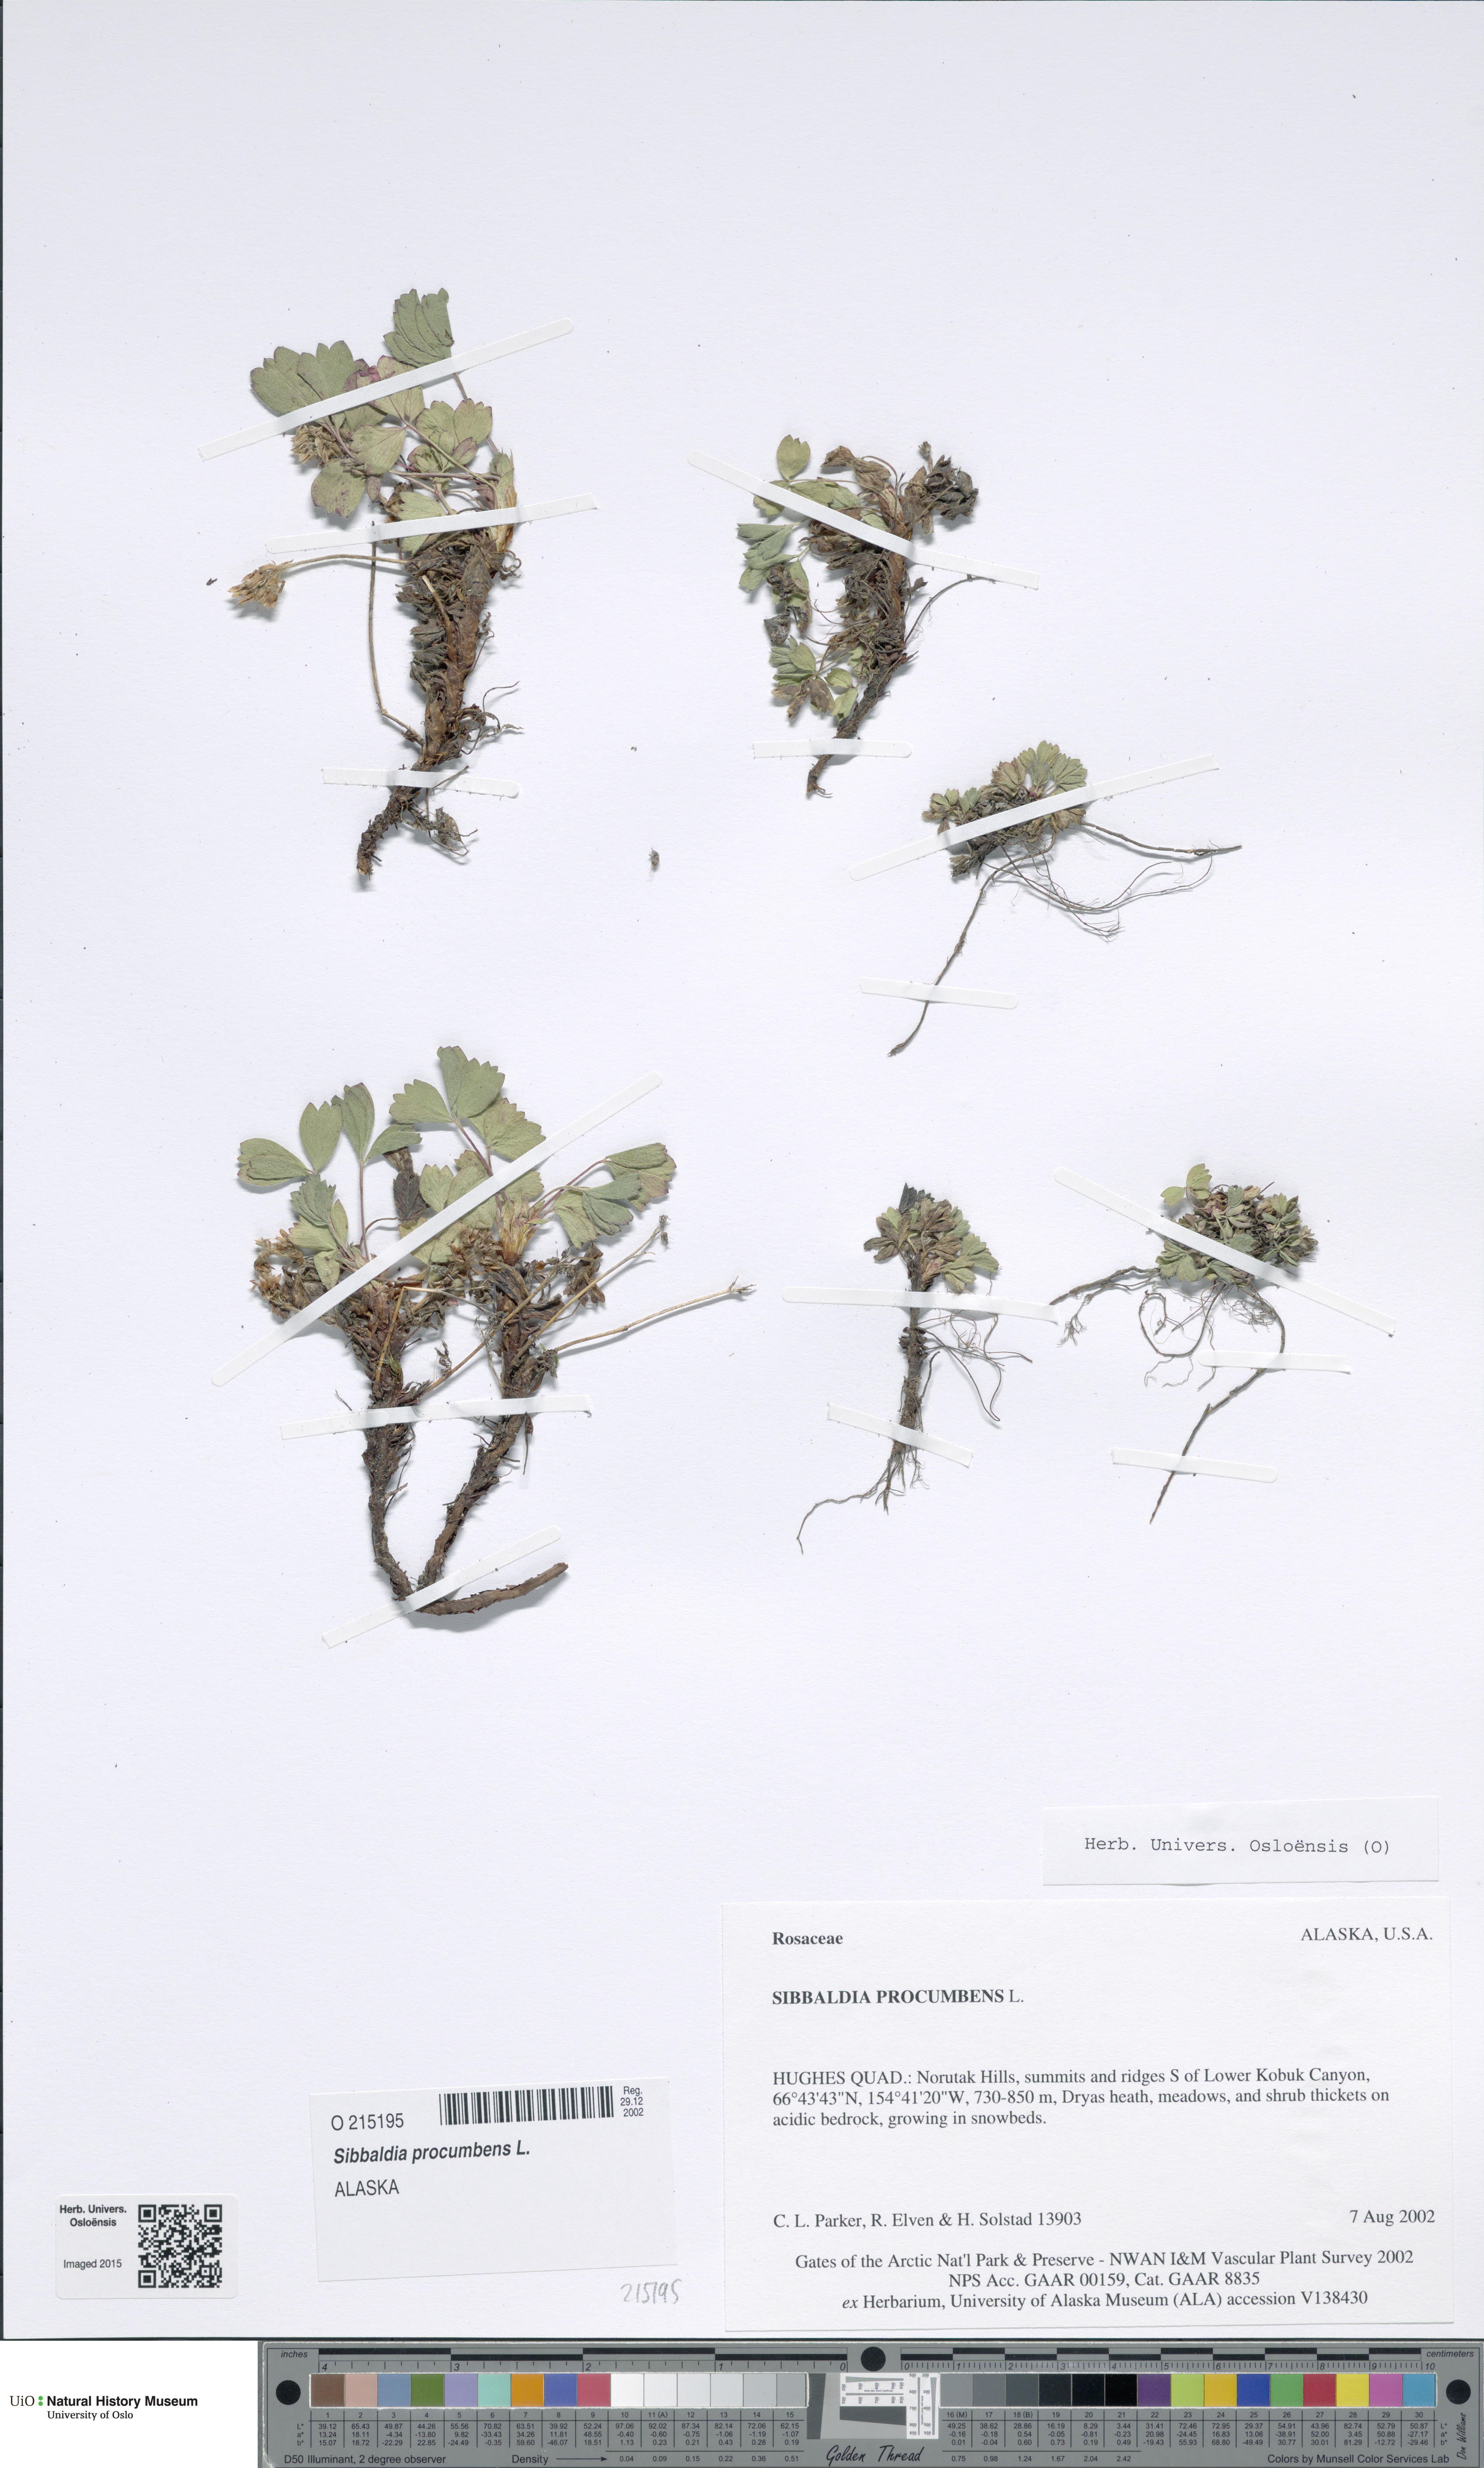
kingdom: Plantae
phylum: Tracheophyta
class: Magnoliopsida
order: Rosales
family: Rosaceae
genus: Sibbaldia
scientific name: Sibbaldia procumbens
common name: Creeping sibbaldia
